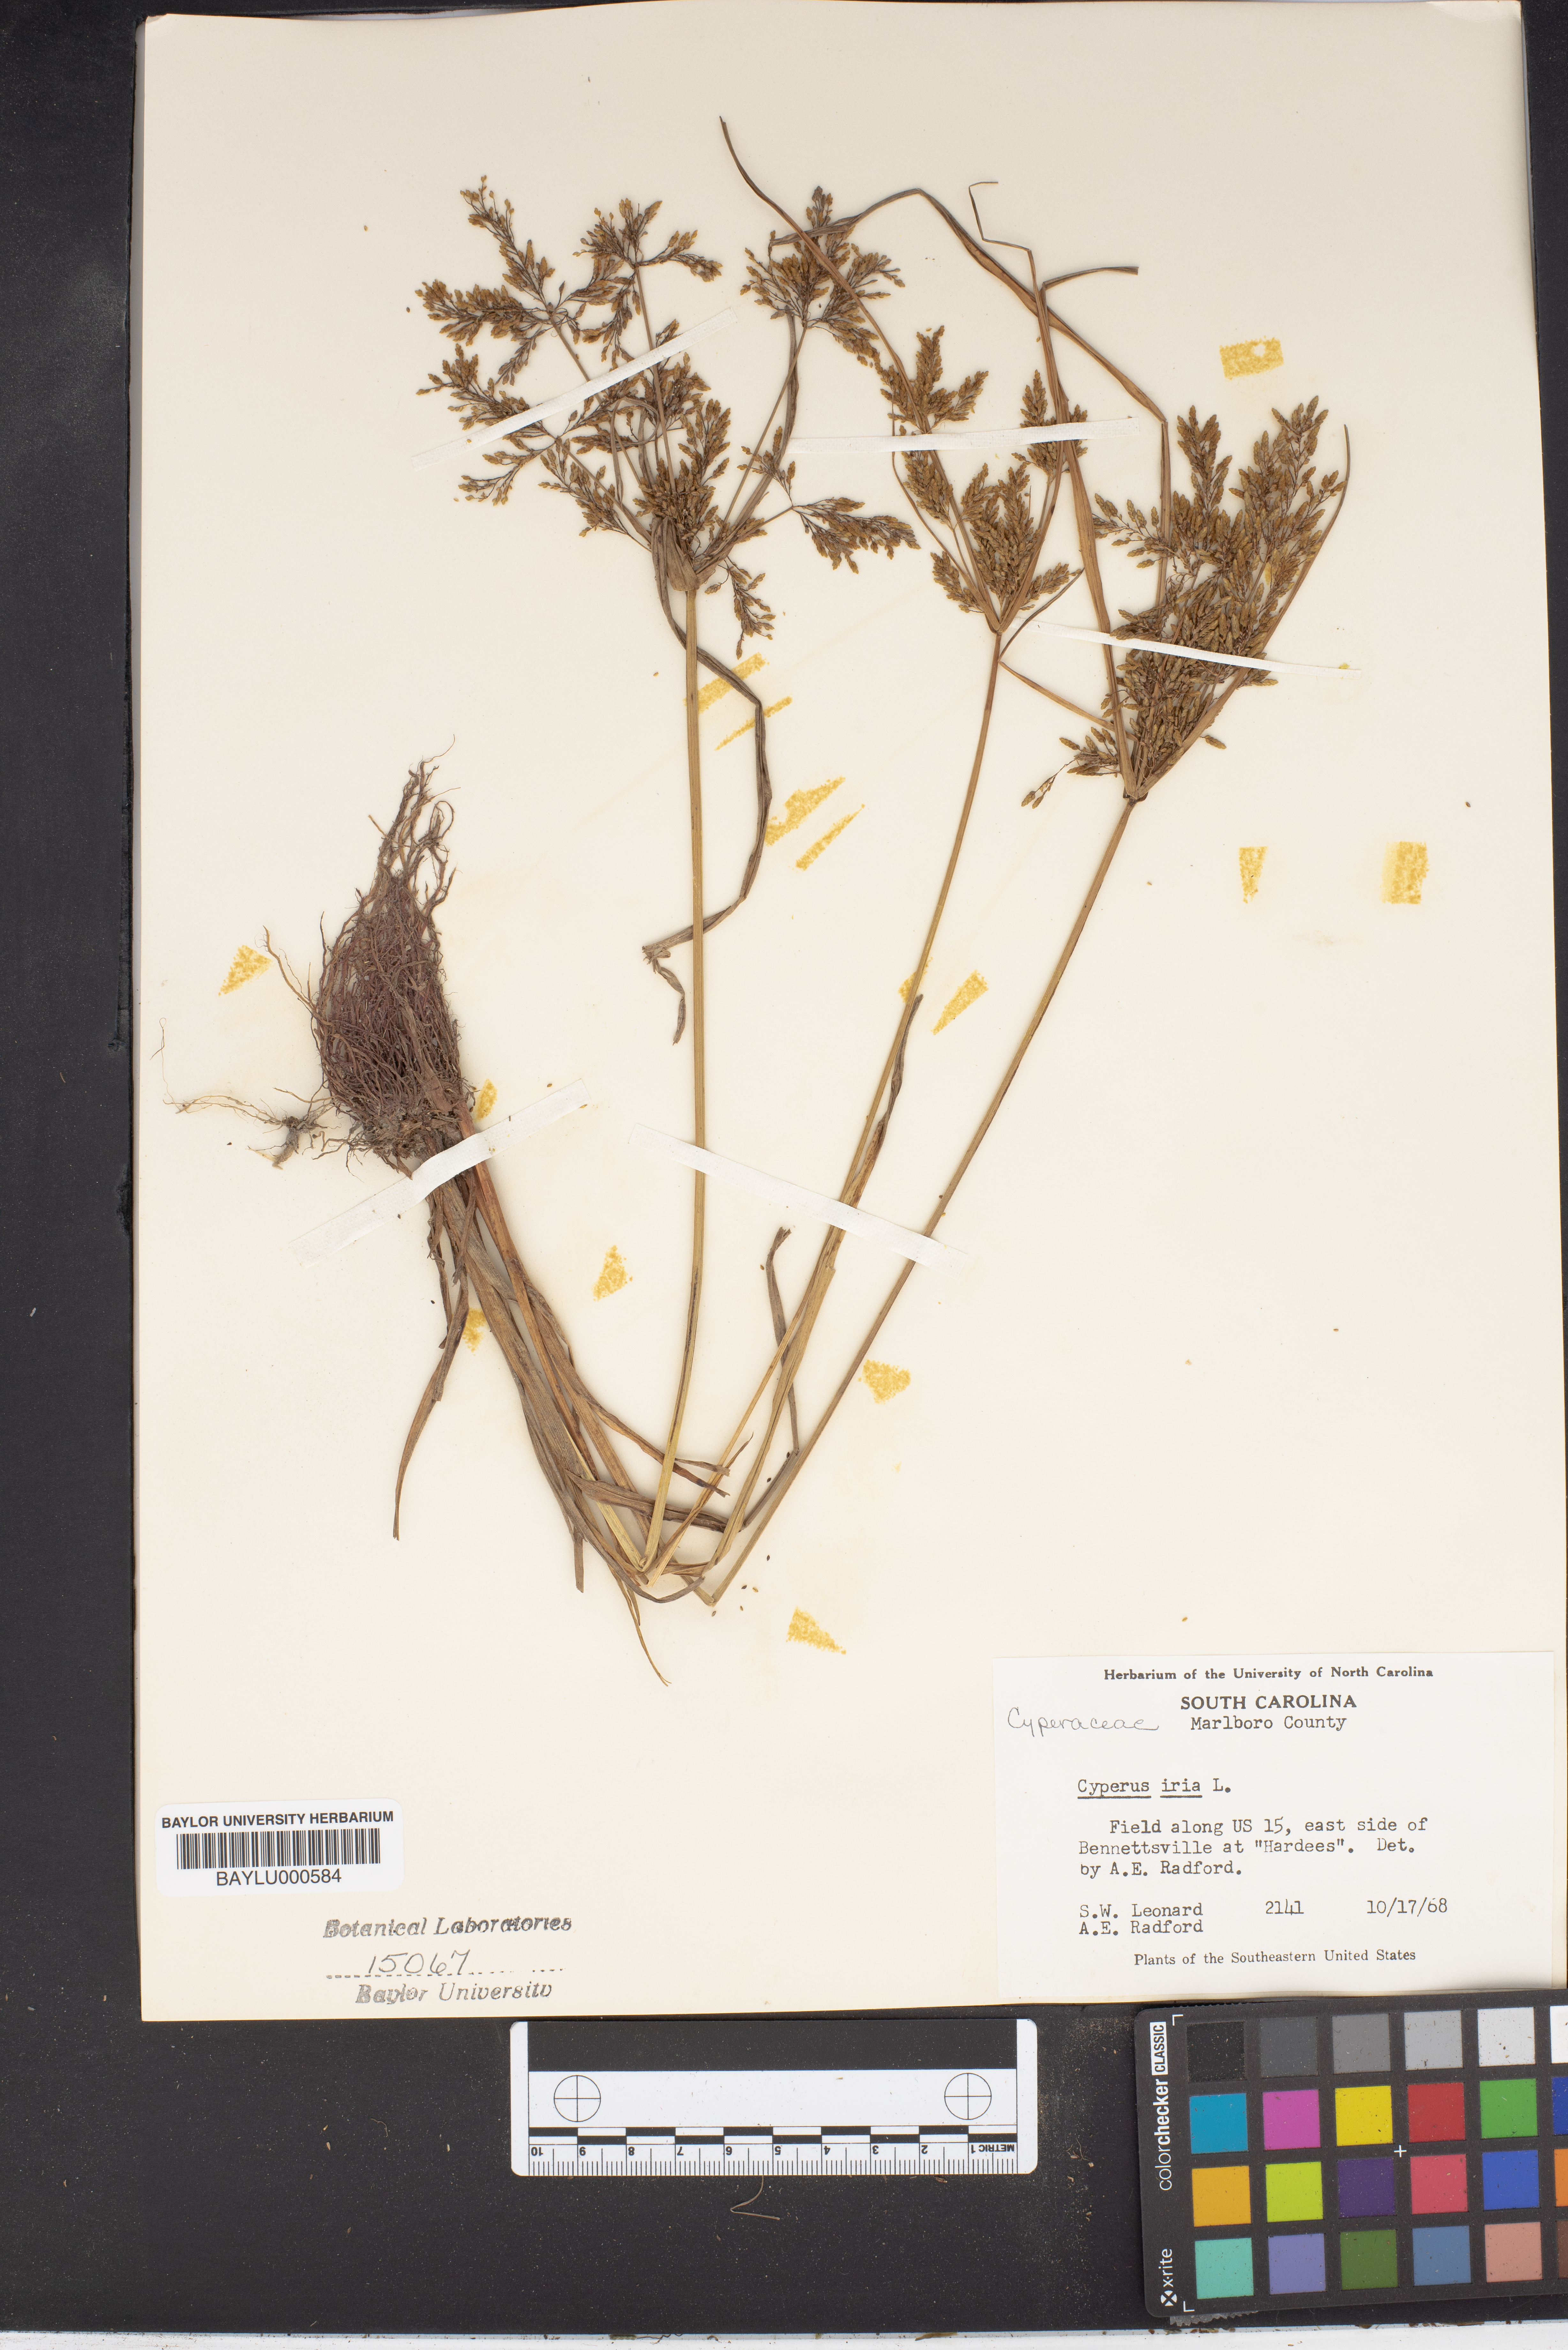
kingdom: Plantae
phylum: Tracheophyta
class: Liliopsida
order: Poales
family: Cyperaceae
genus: Cyperus
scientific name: Cyperus iria
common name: Ricefield flatsedge
